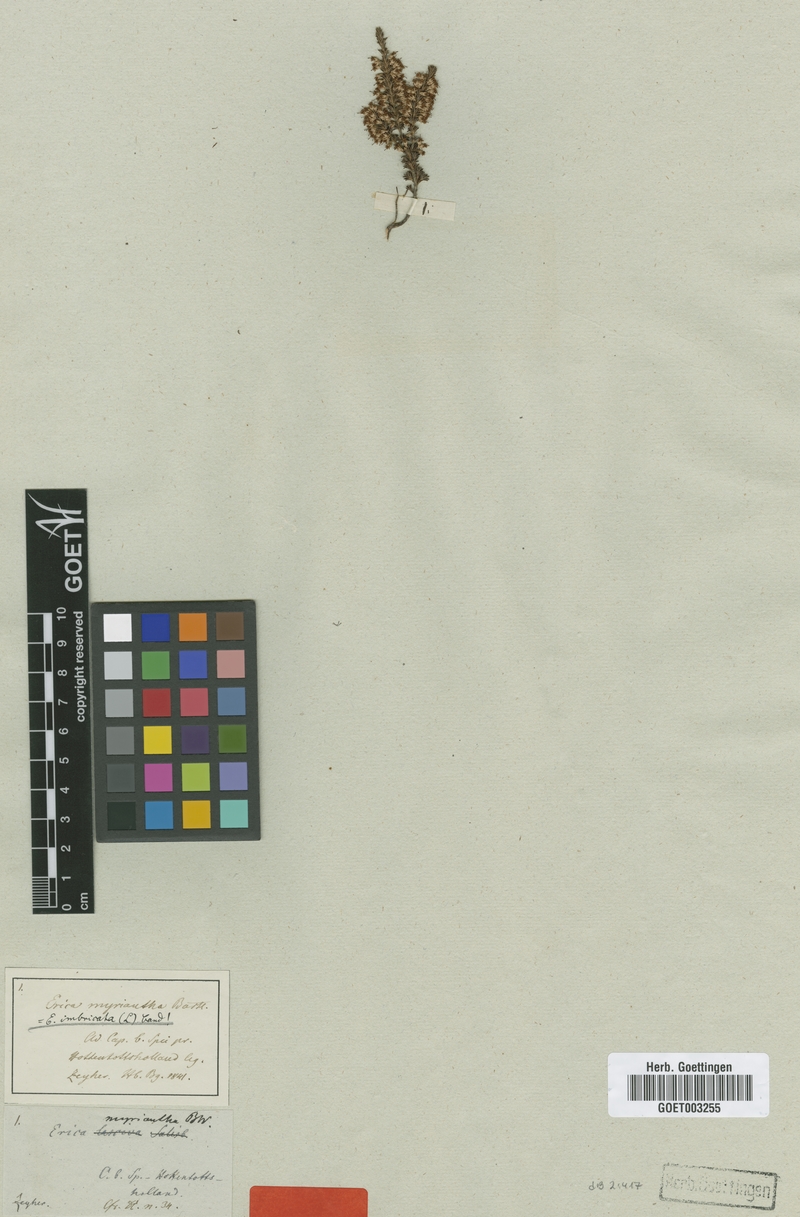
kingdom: Plantae
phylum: Tracheophyta
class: Magnoliopsida
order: Ericales
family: Ericaceae
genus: Erica
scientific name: Erica imbricata
